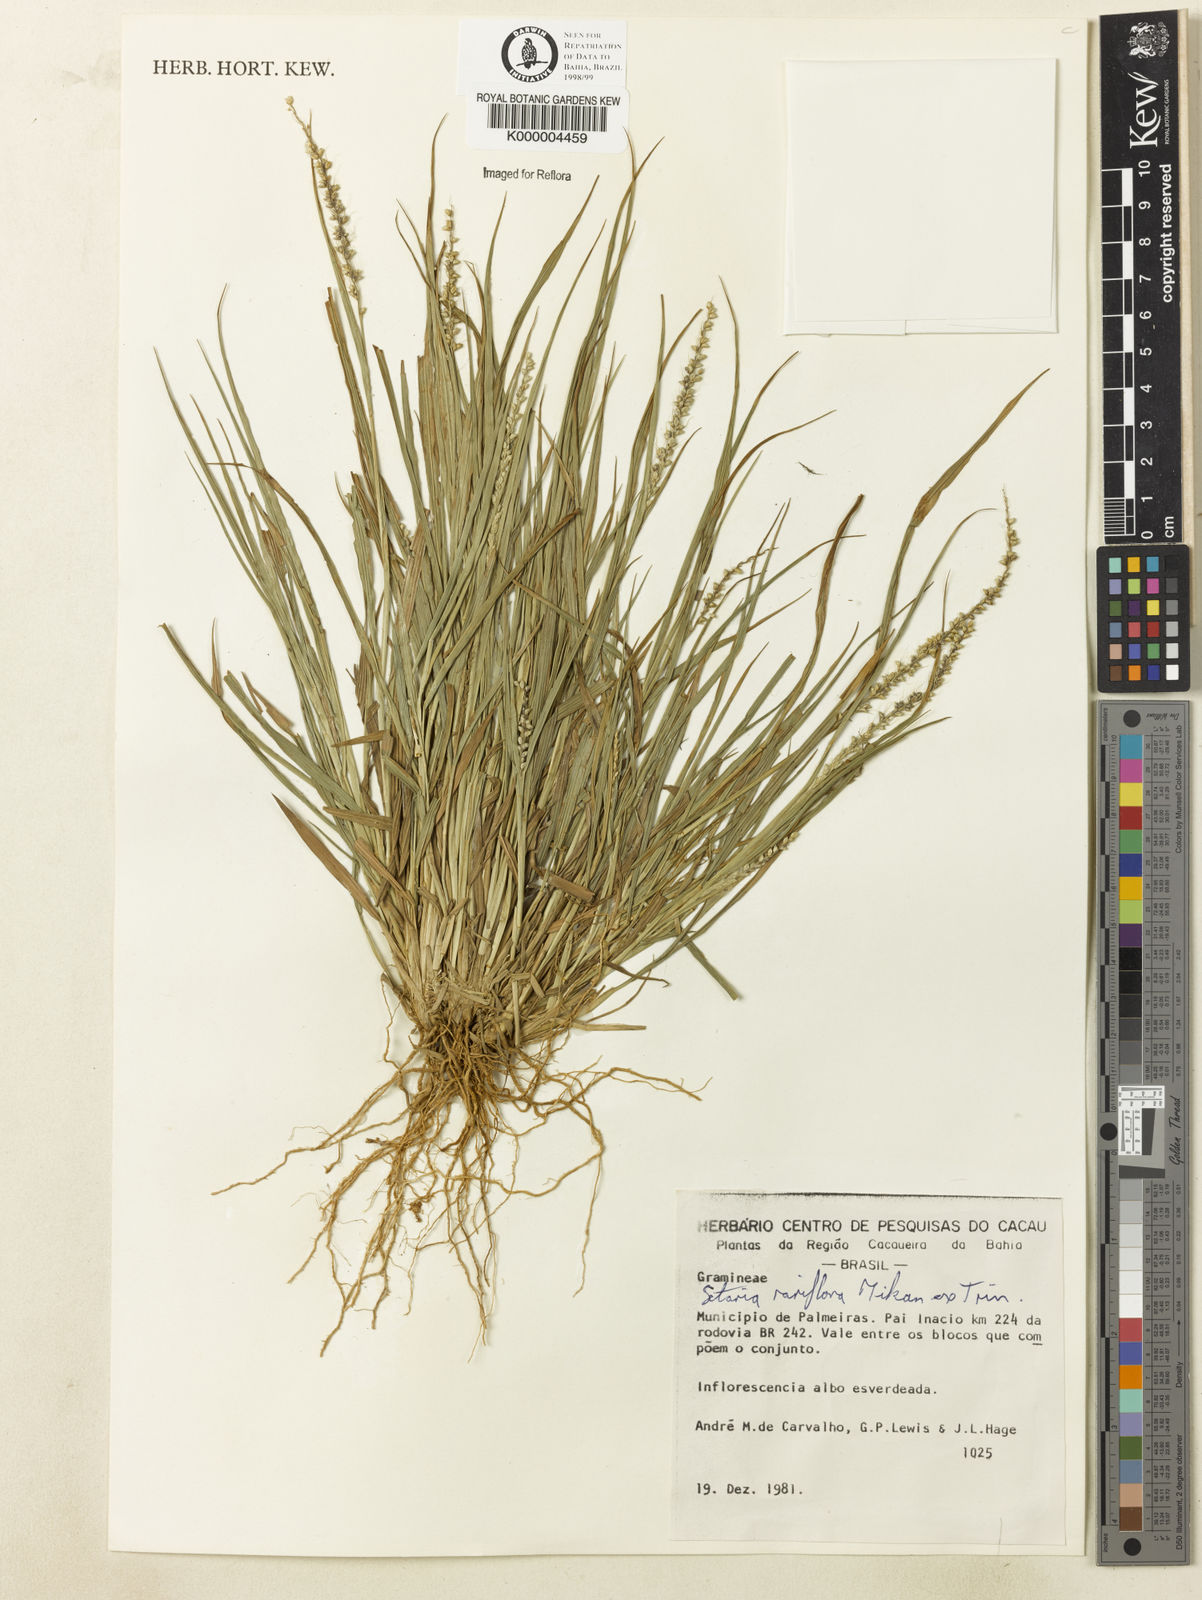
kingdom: Plantae
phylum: Tracheophyta
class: Liliopsida
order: Poales
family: Poaceae
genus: Setaria
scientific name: Setaria setosa
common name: West indies bristle grass
